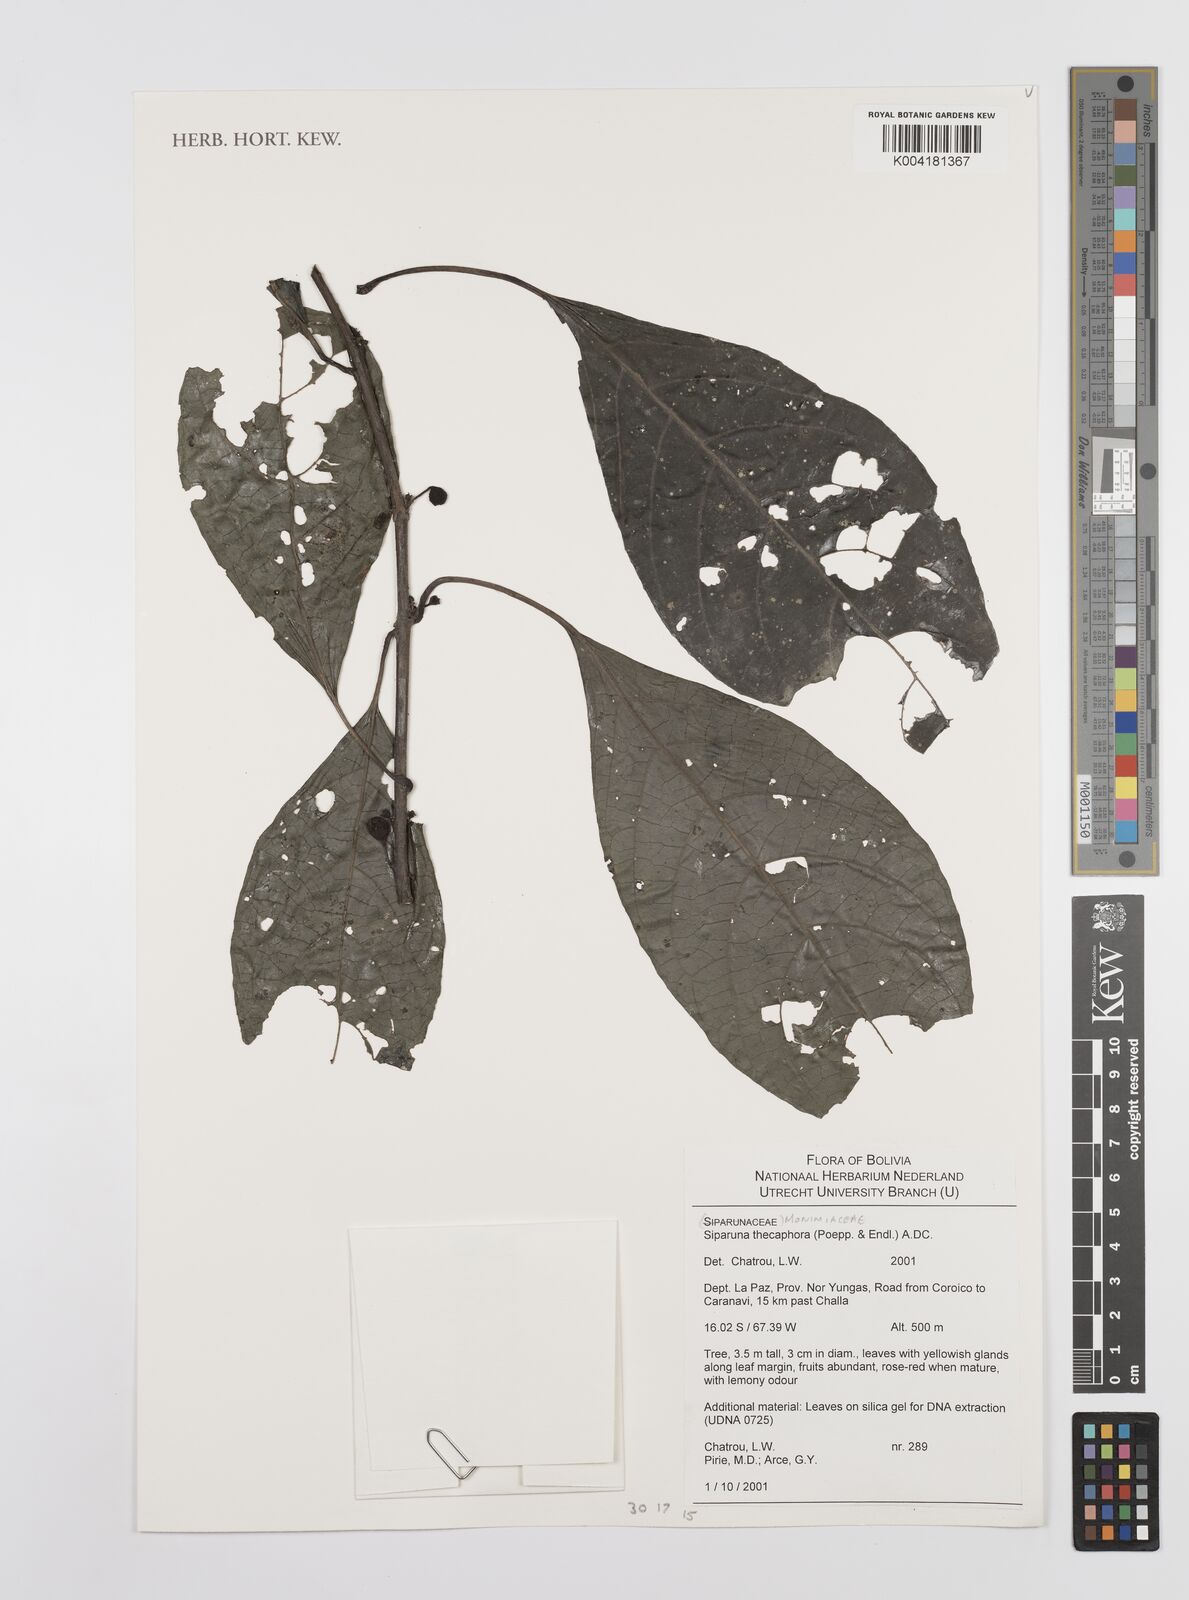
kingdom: Plantae
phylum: Tracheophyta
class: Magnoliopsida
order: Laurales
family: Siparunaceae
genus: Siparuna
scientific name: Siparuna thecaphora
